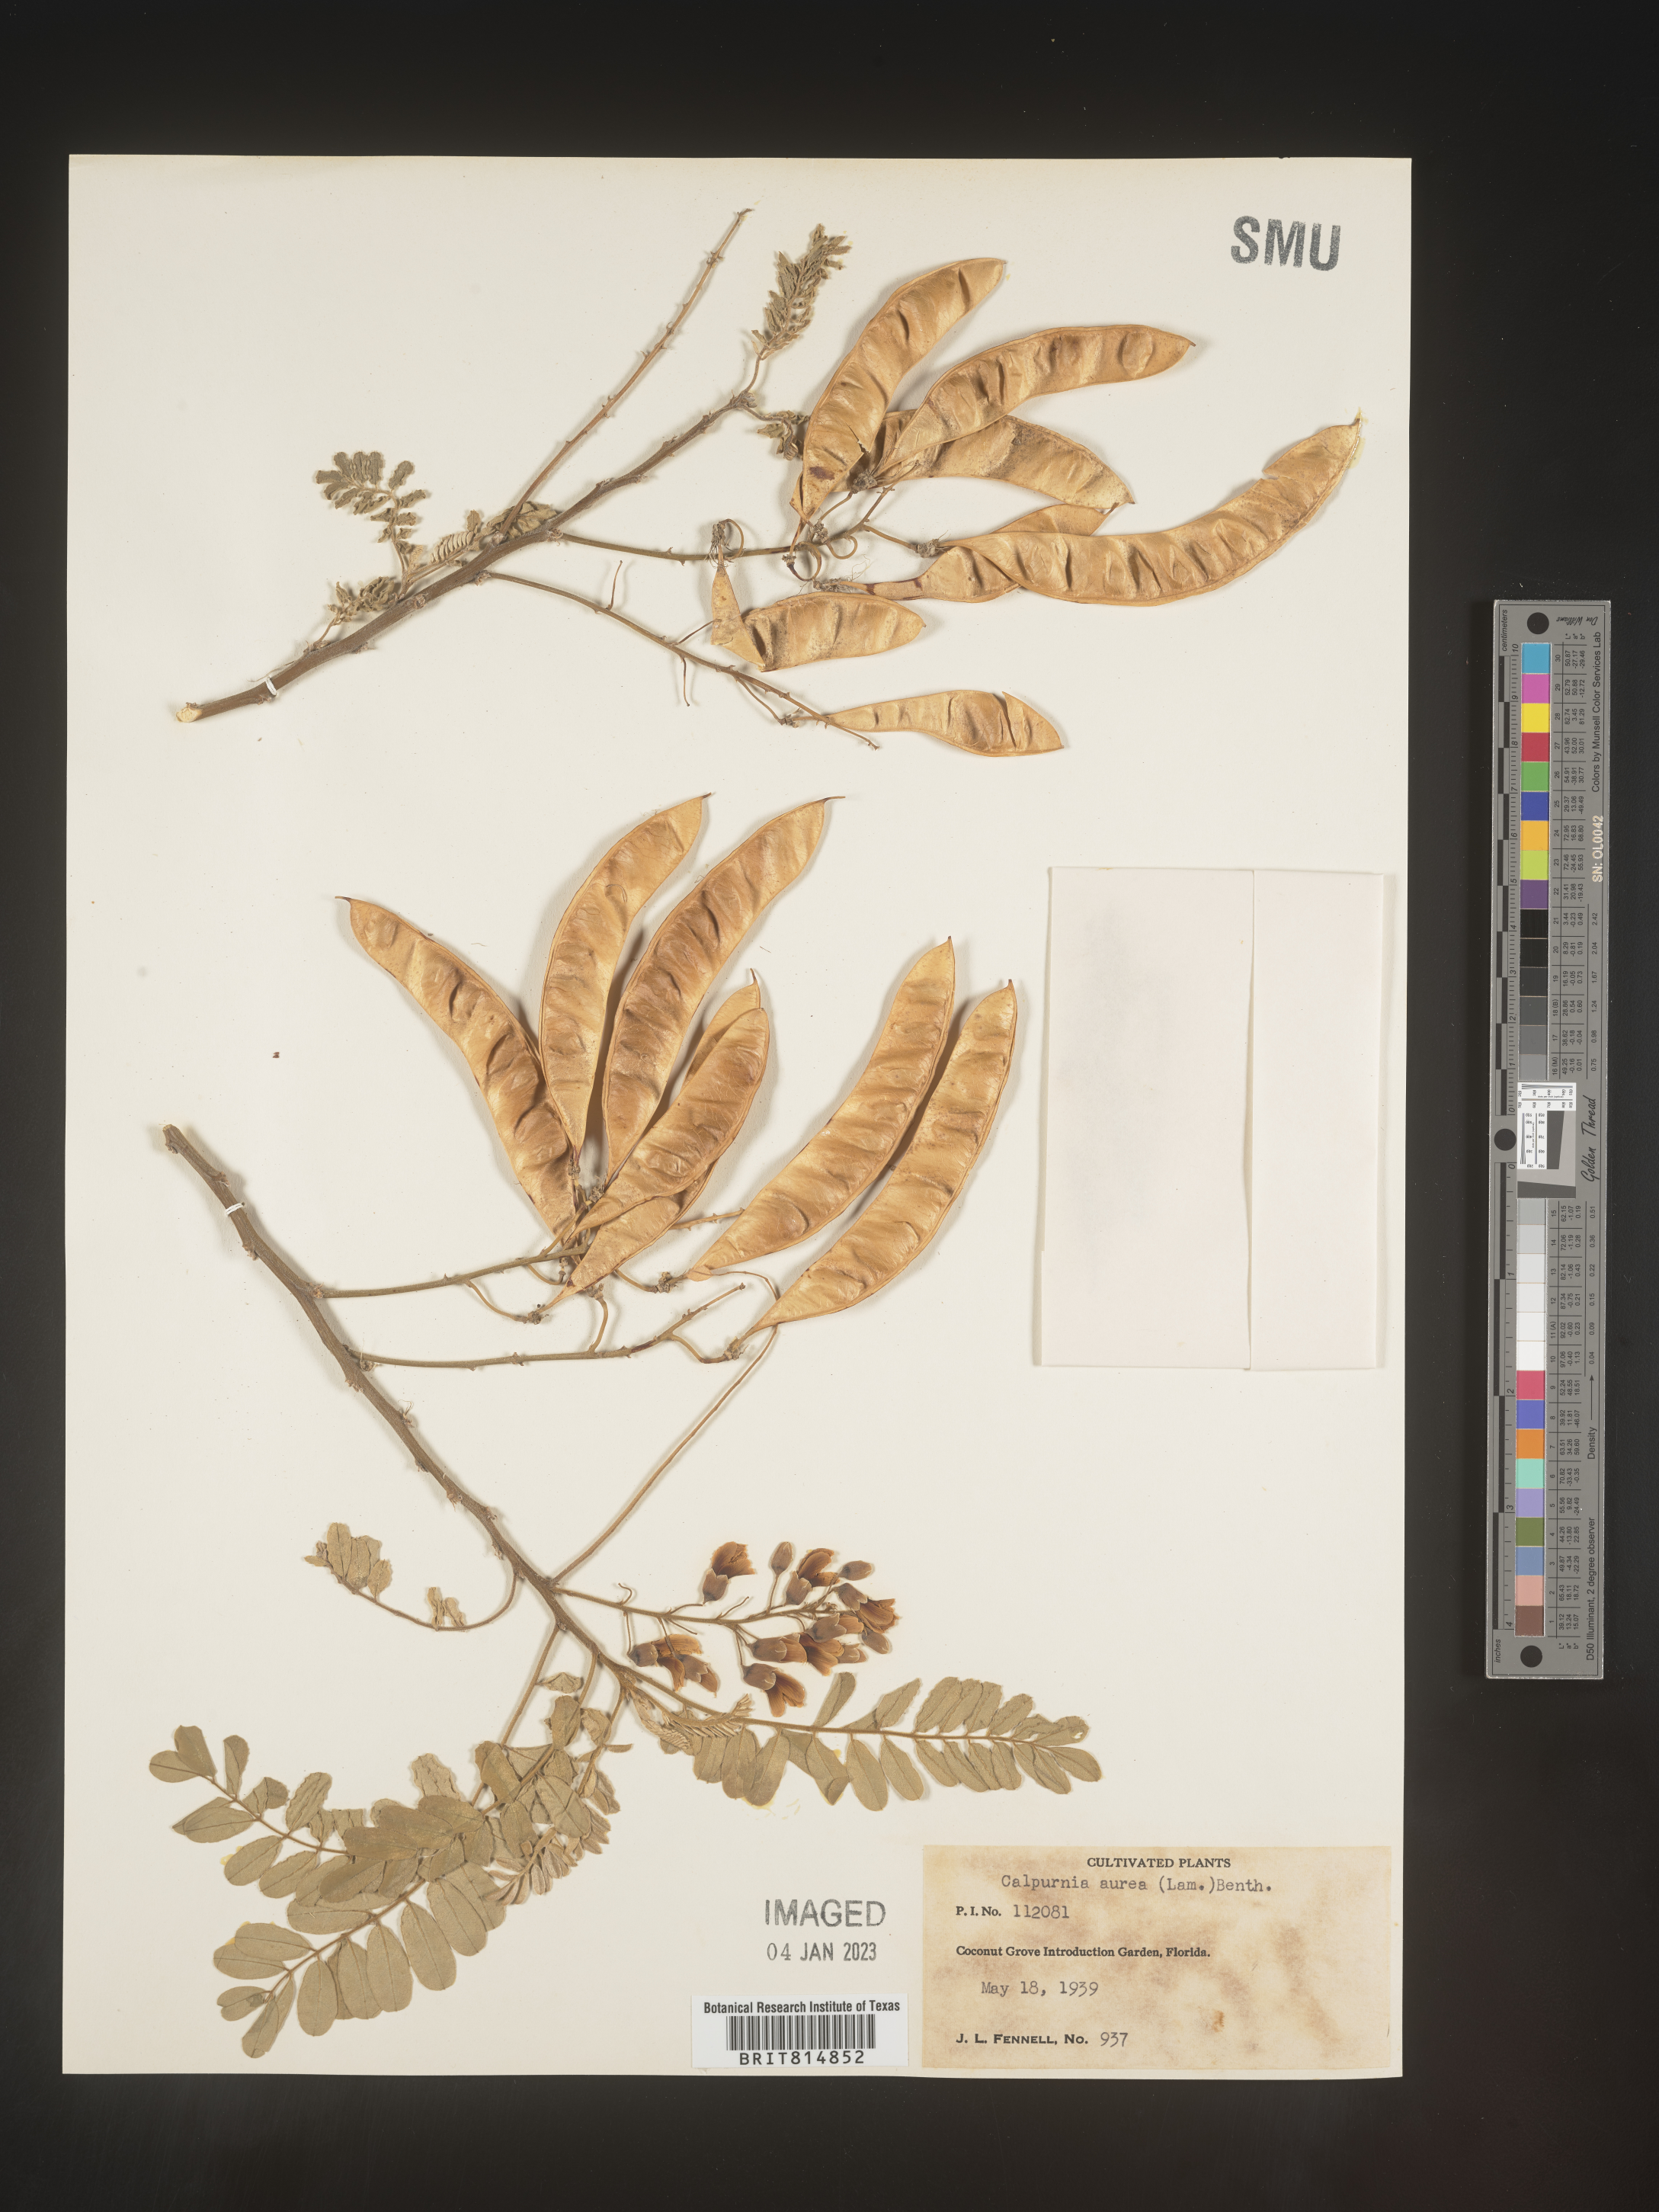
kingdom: Plantae
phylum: Tracheophyta
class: Magnoliopsida
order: Fabales
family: Fabaceae
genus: Calpurnia
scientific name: Calpurnia aurea
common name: Wild laburnum
